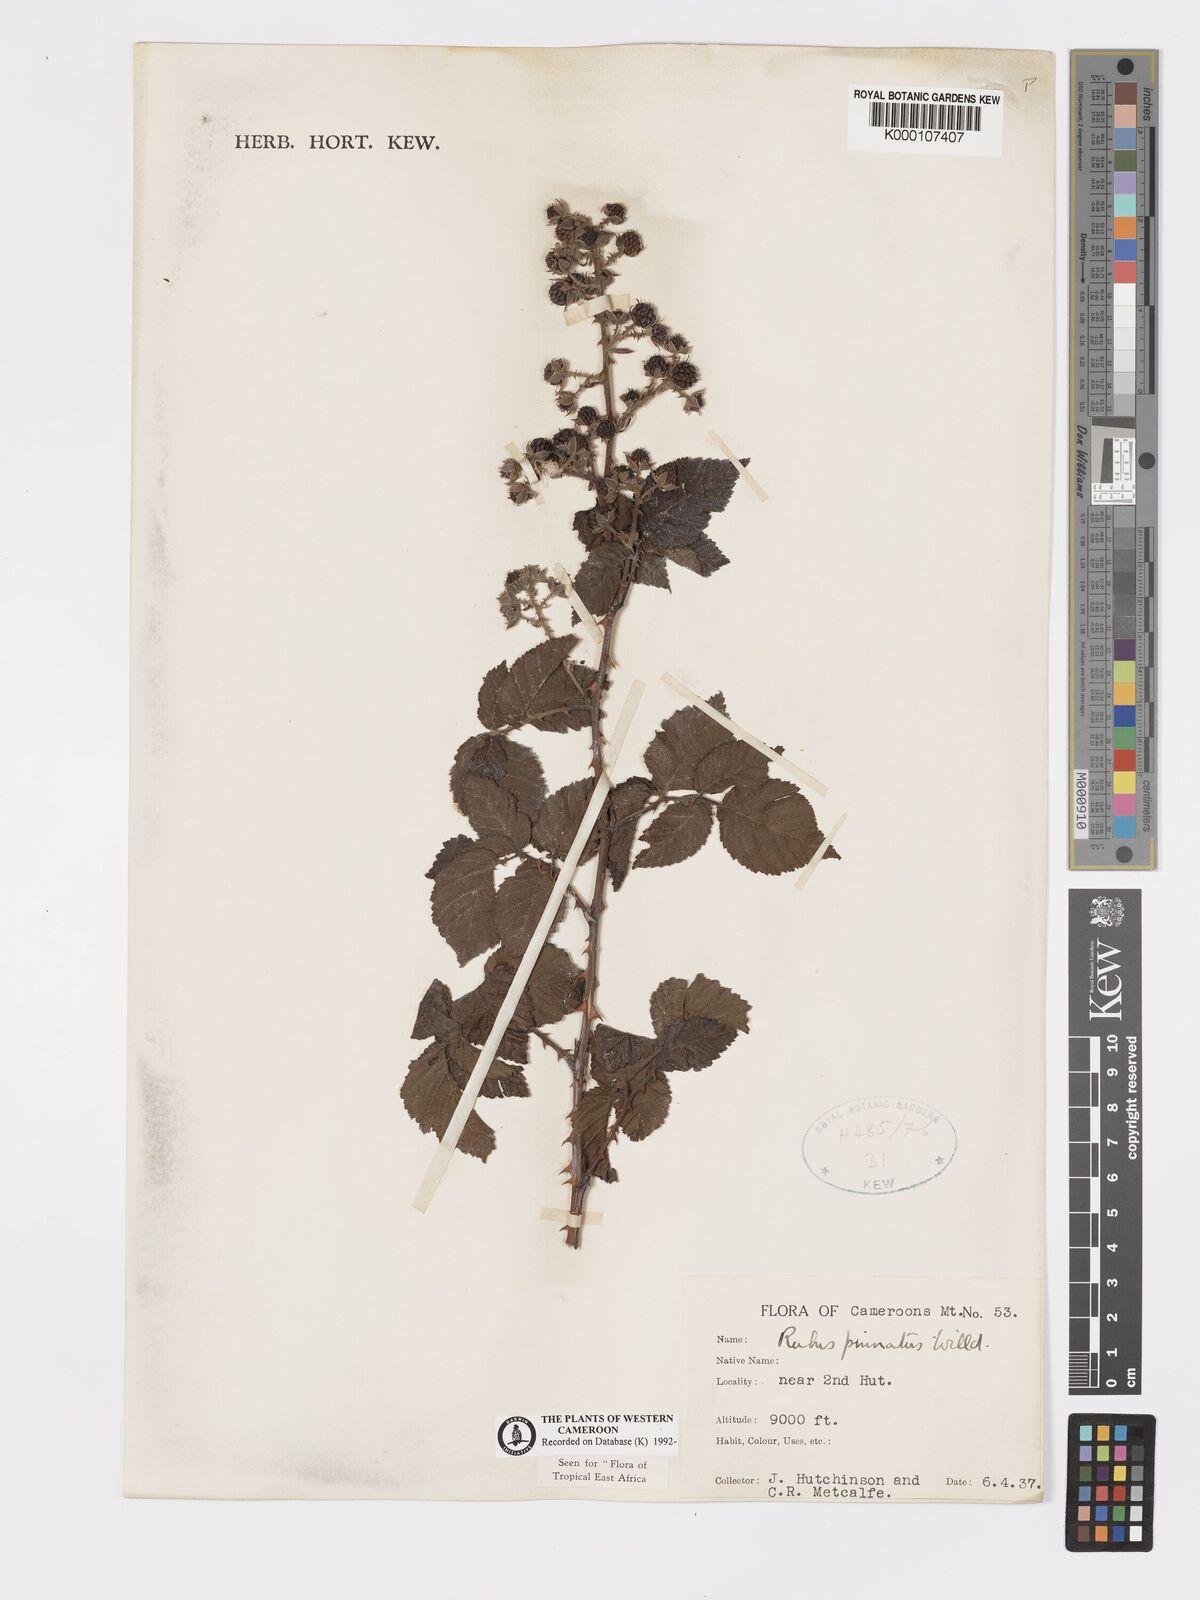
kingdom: Plantae
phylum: Tracheophyta
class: Magnoliopsida
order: Rosales
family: Rosaceae
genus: Rubus
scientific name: Rubus pinnatus
